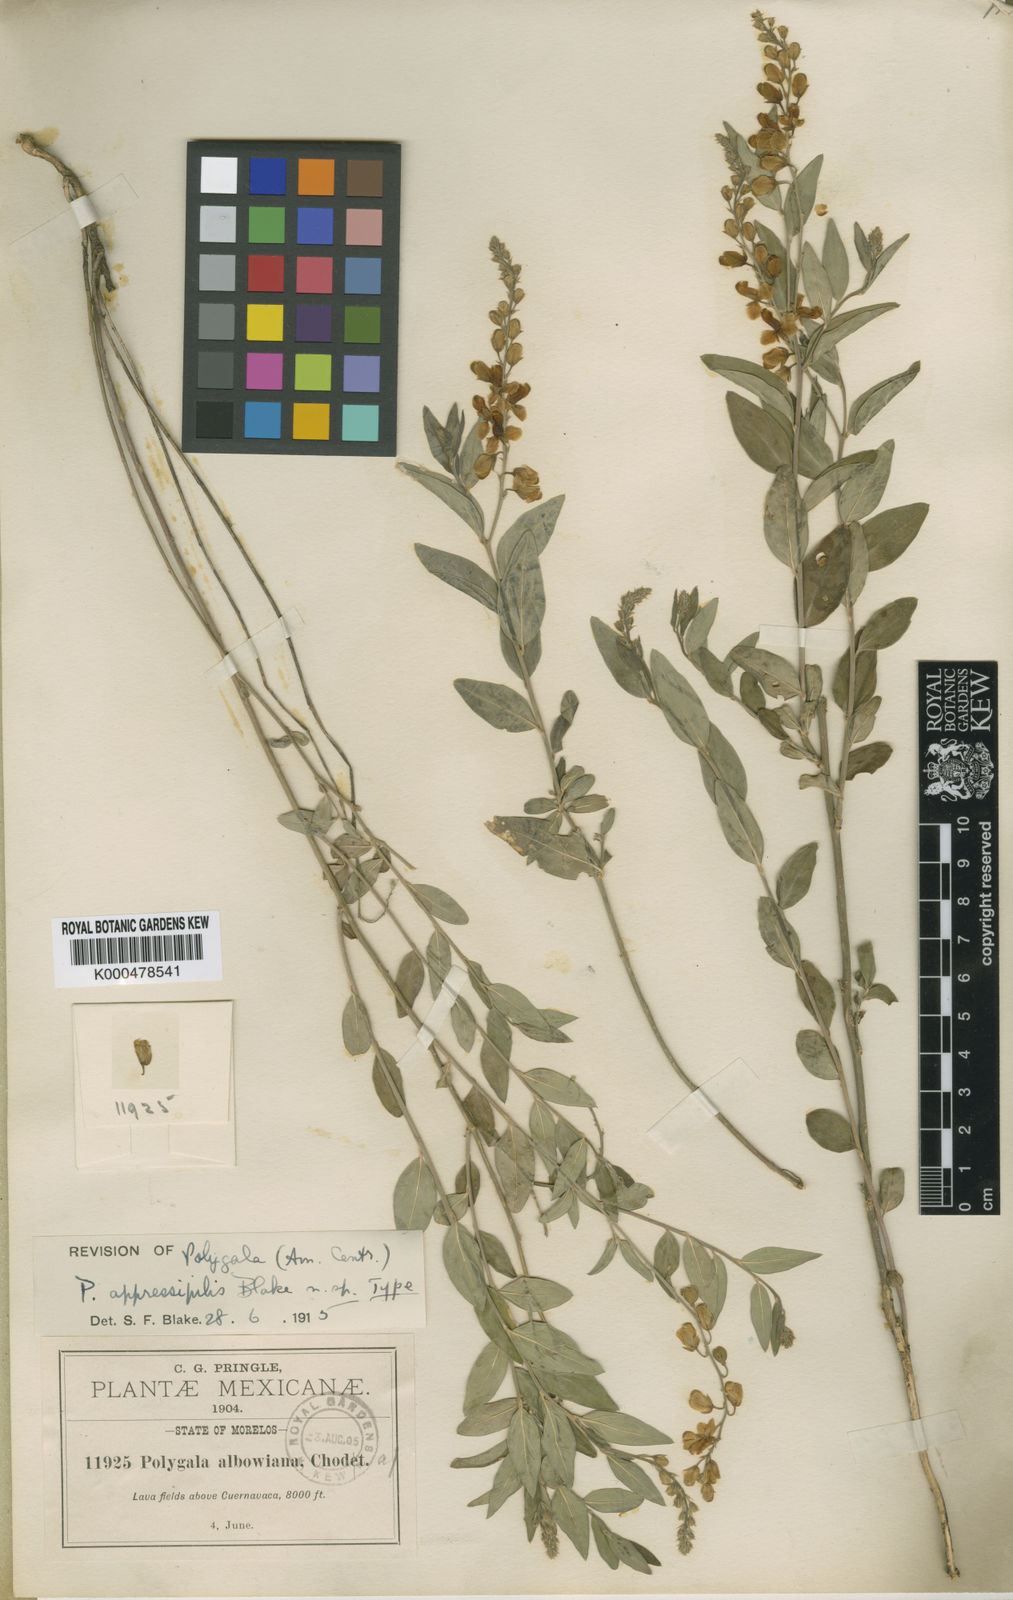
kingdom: Plantae
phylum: Tracheophyta
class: Magnoliopsida
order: Fabales
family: Polygalaceae
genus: Polygala
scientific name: Polygala appressipilis
